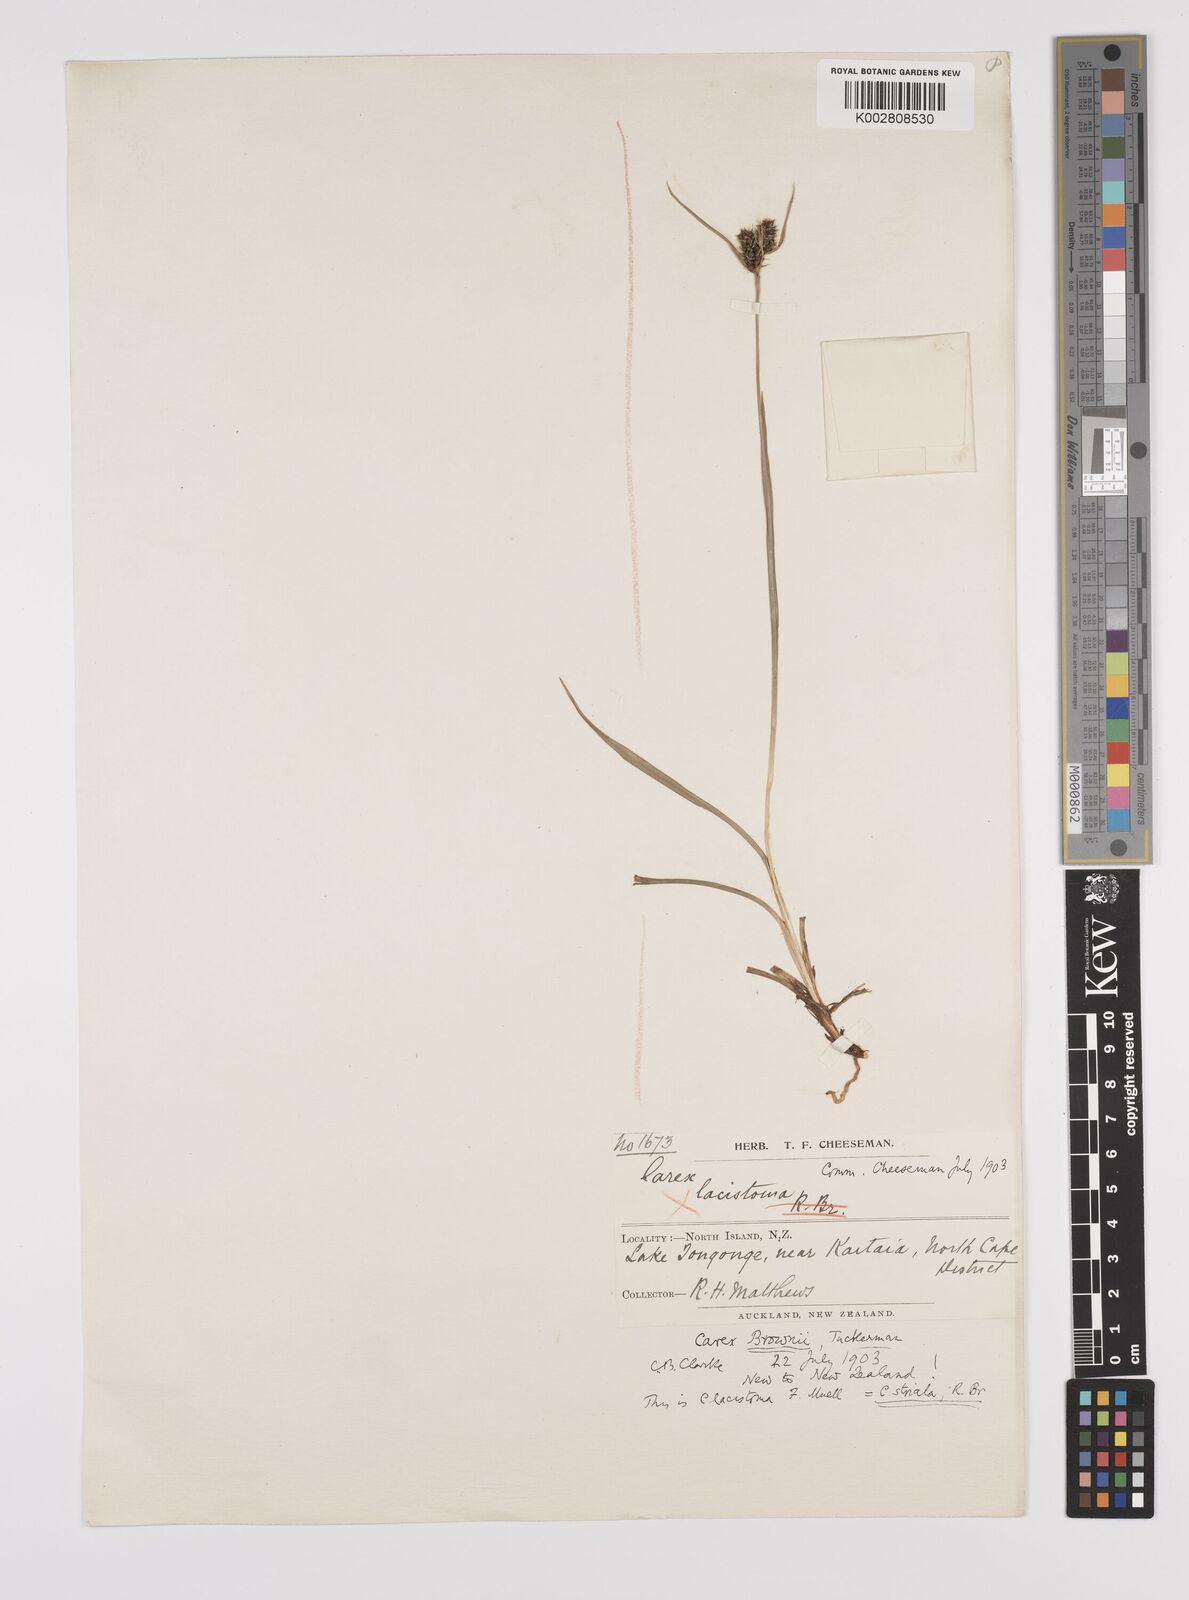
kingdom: Plantae
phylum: Tracheophyta
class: Liliopsida
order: Poales
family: Cyperaceae
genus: Carex
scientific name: Carex brownii
